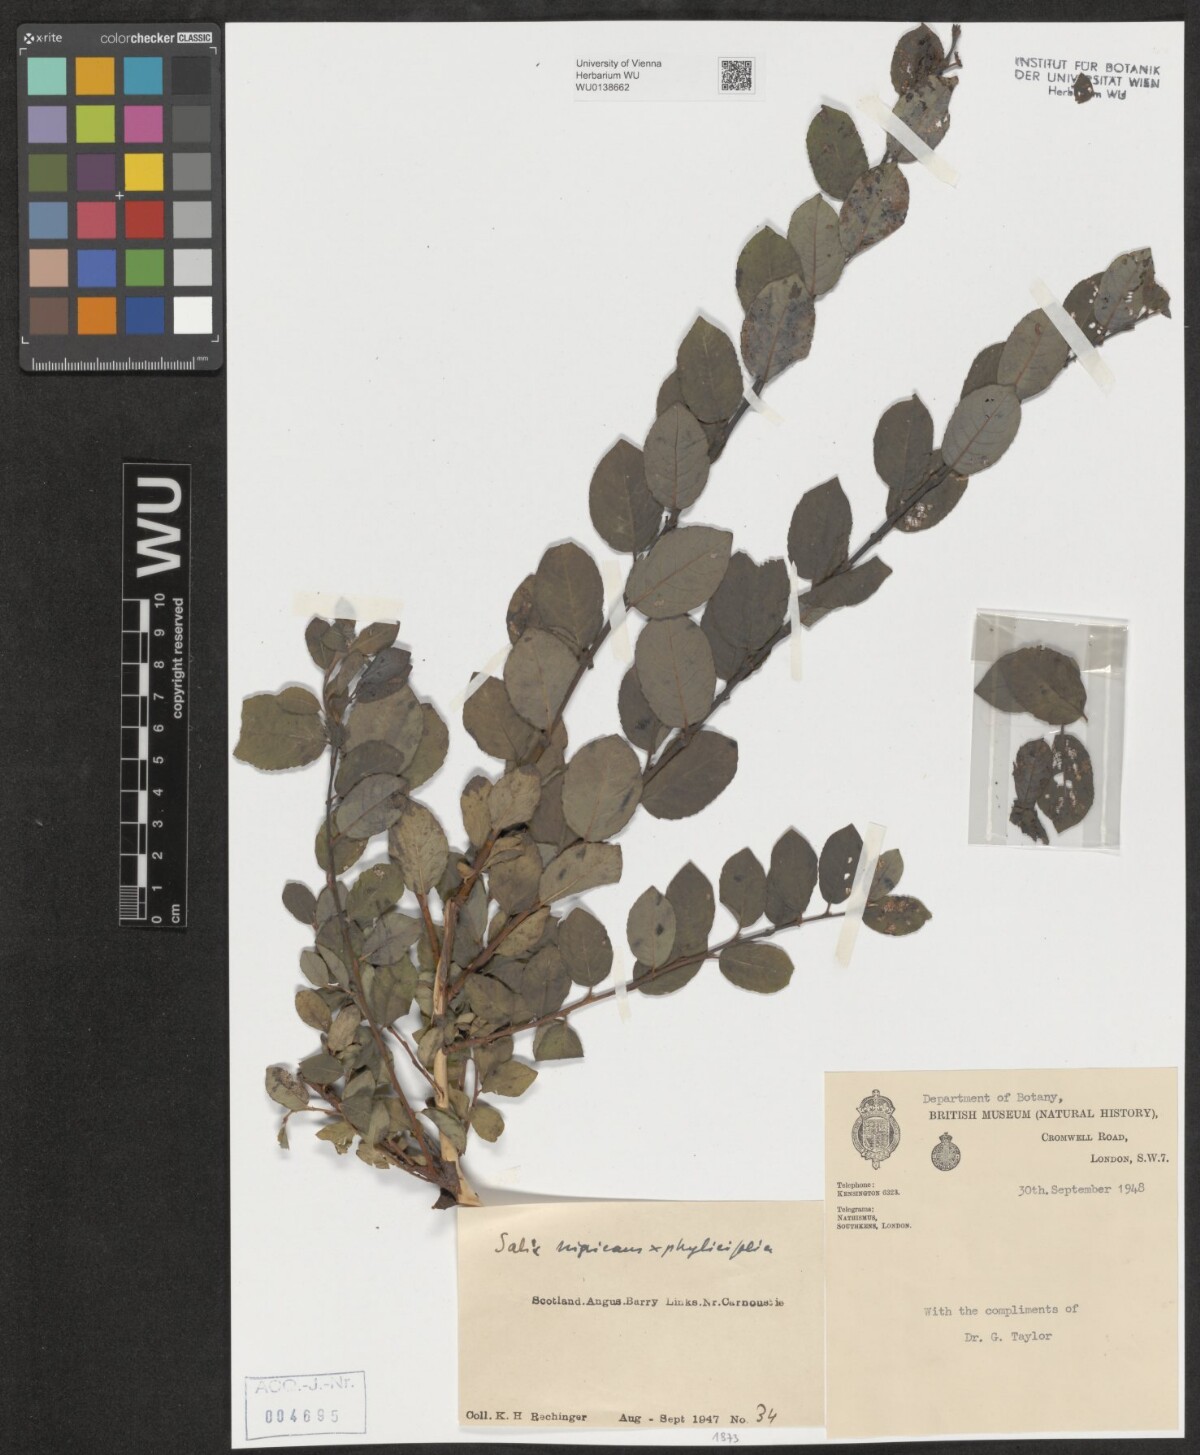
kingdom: Plantae
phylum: Tracheophyta
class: Magnoliopsida
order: Malpighiales
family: Salicaceae
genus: Salix
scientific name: Salix
